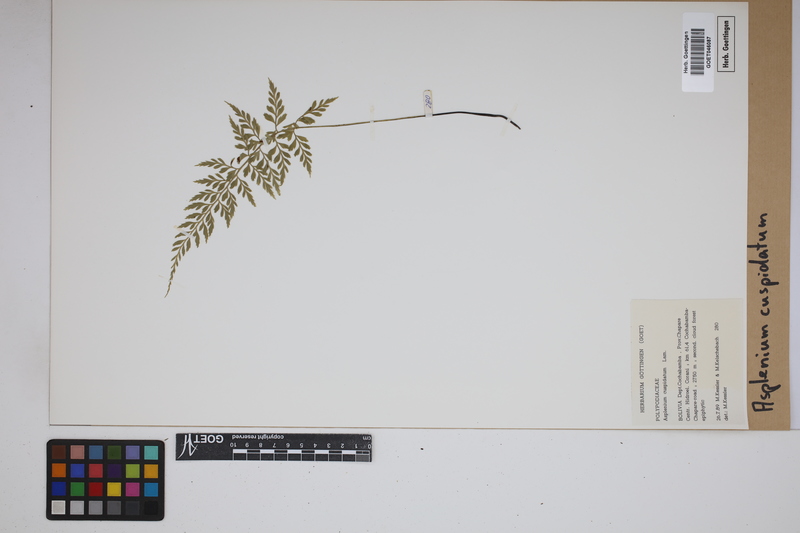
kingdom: Plantae
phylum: Tracheophyta
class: Polypodiopsida
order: Polypodiales
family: Aspleniaceae
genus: Asplenium
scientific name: Asplenium cuspidatum
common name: Eared spleenwort
